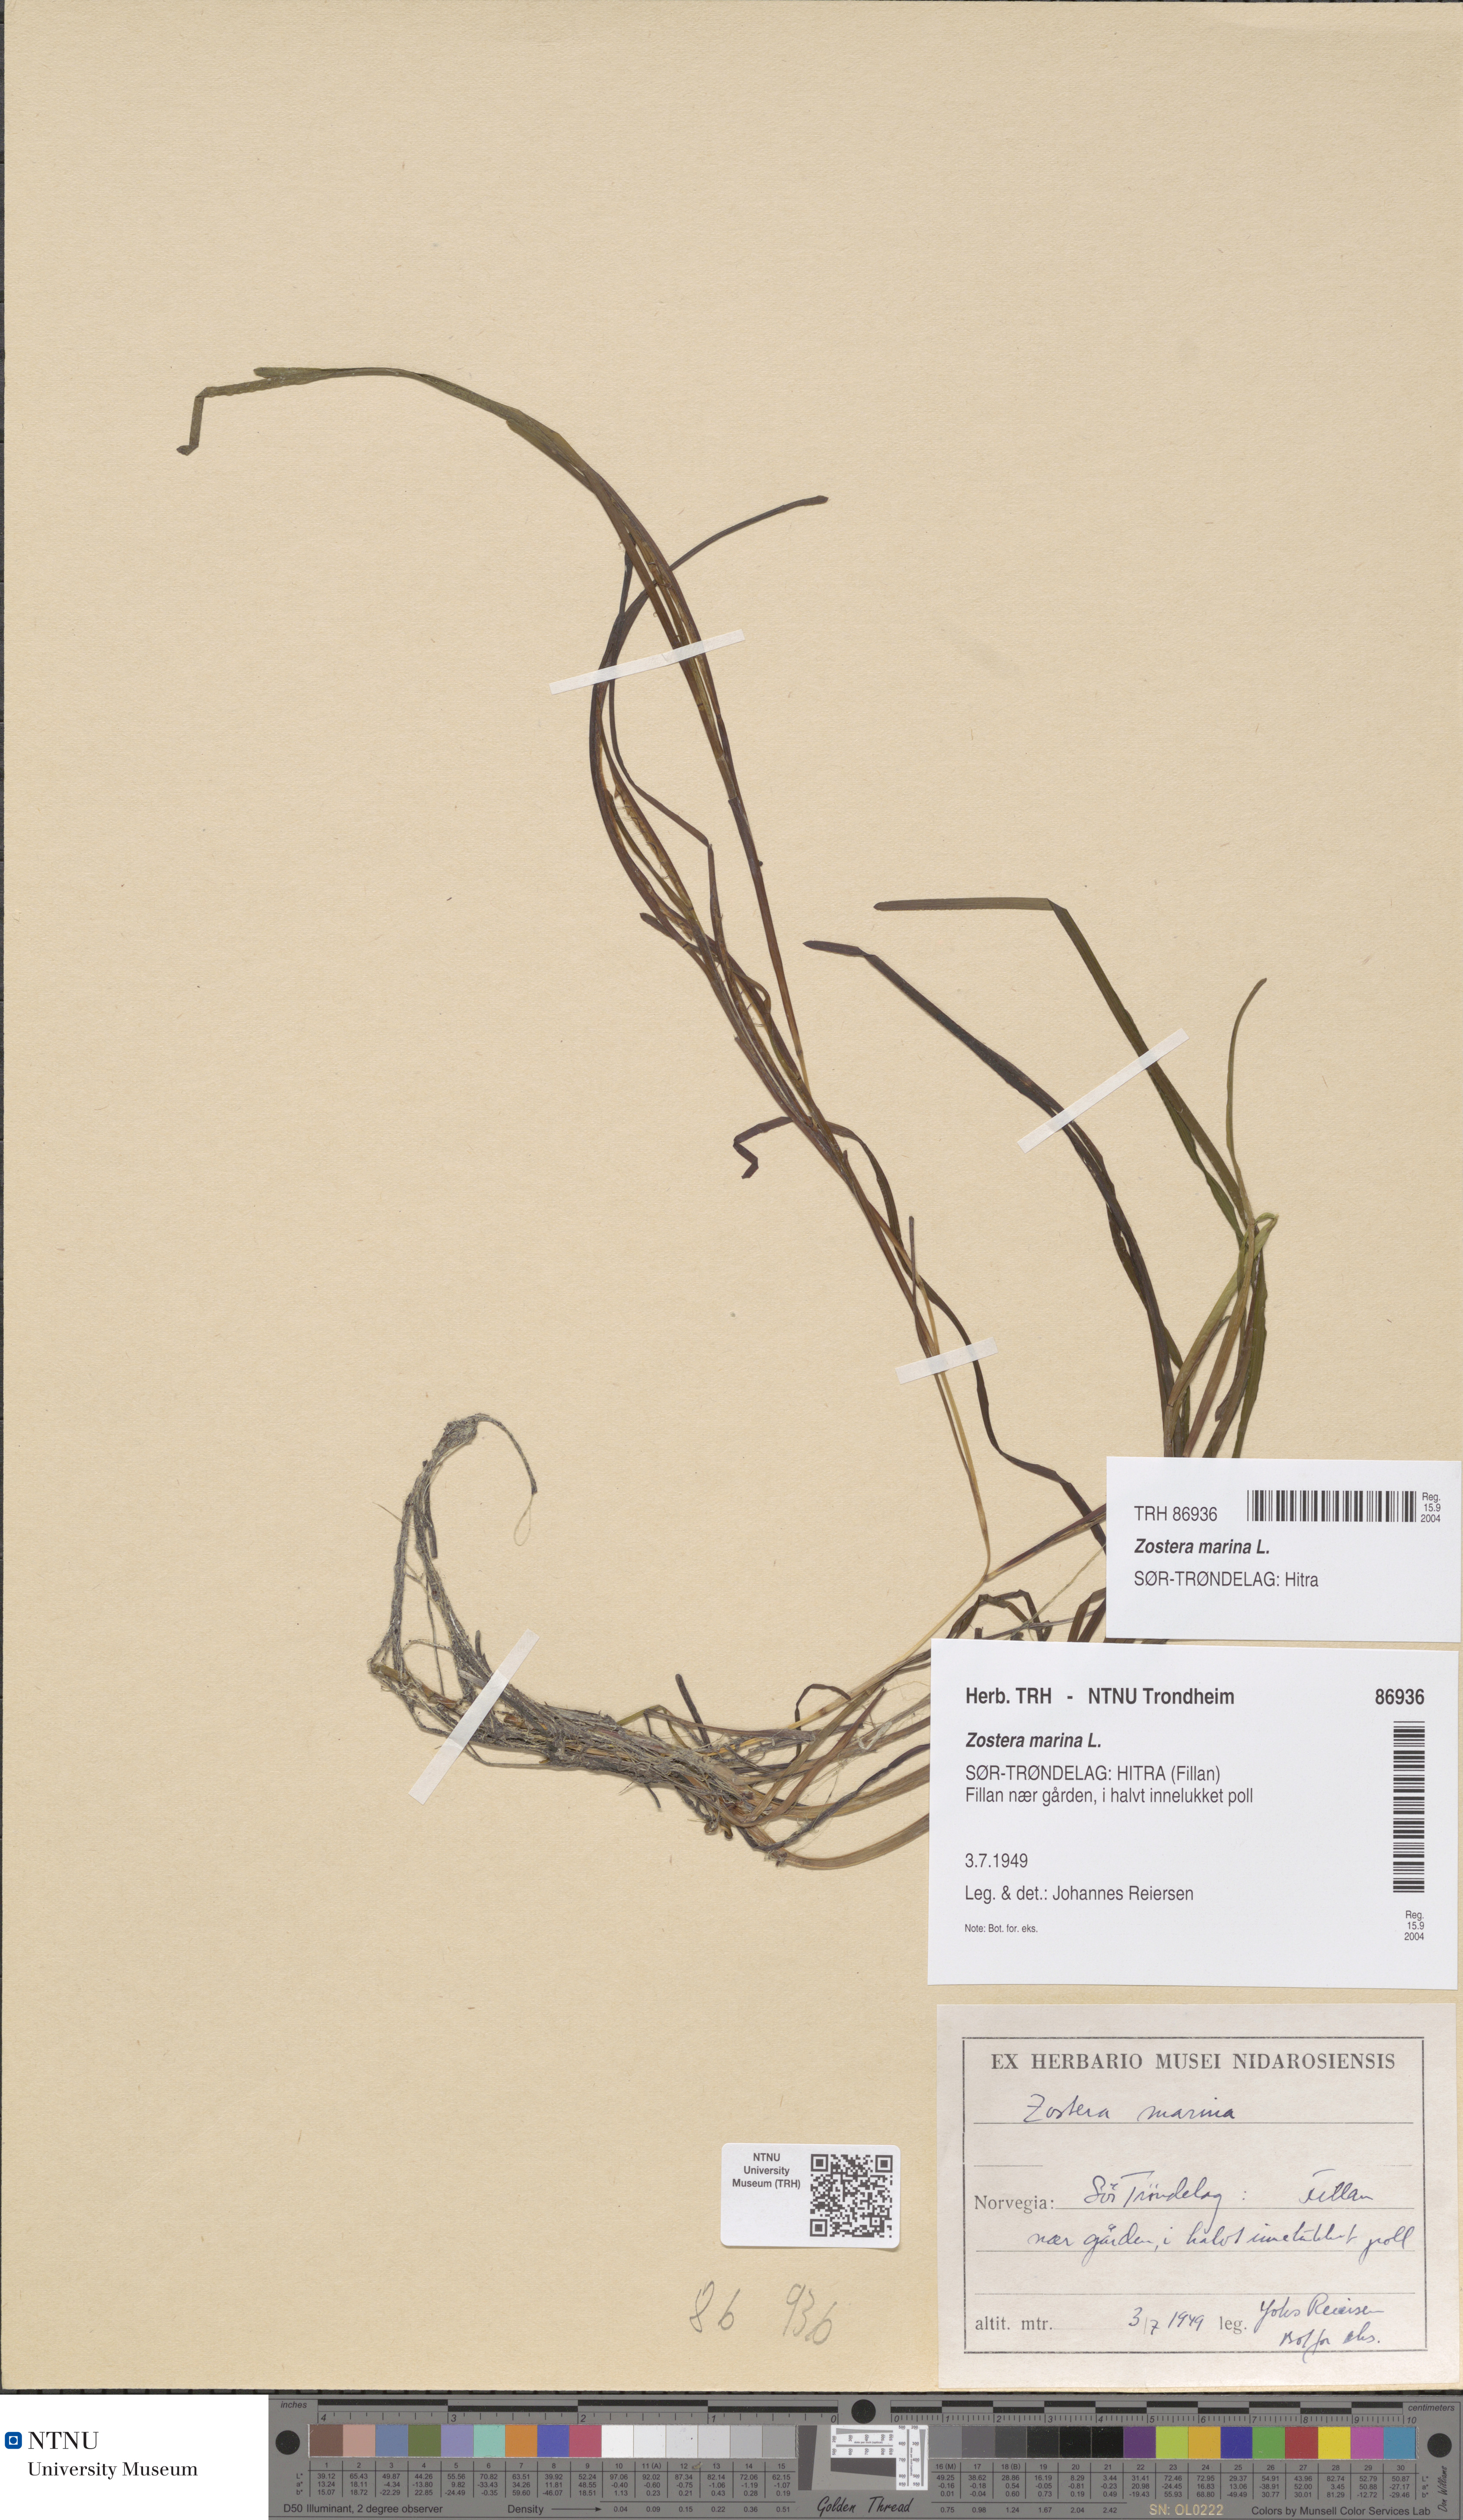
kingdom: Plantae
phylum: Tracheophyta
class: Liliopsida
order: Alismatales
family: Zosteraceae
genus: Zostera
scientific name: Zostera angustifolia
